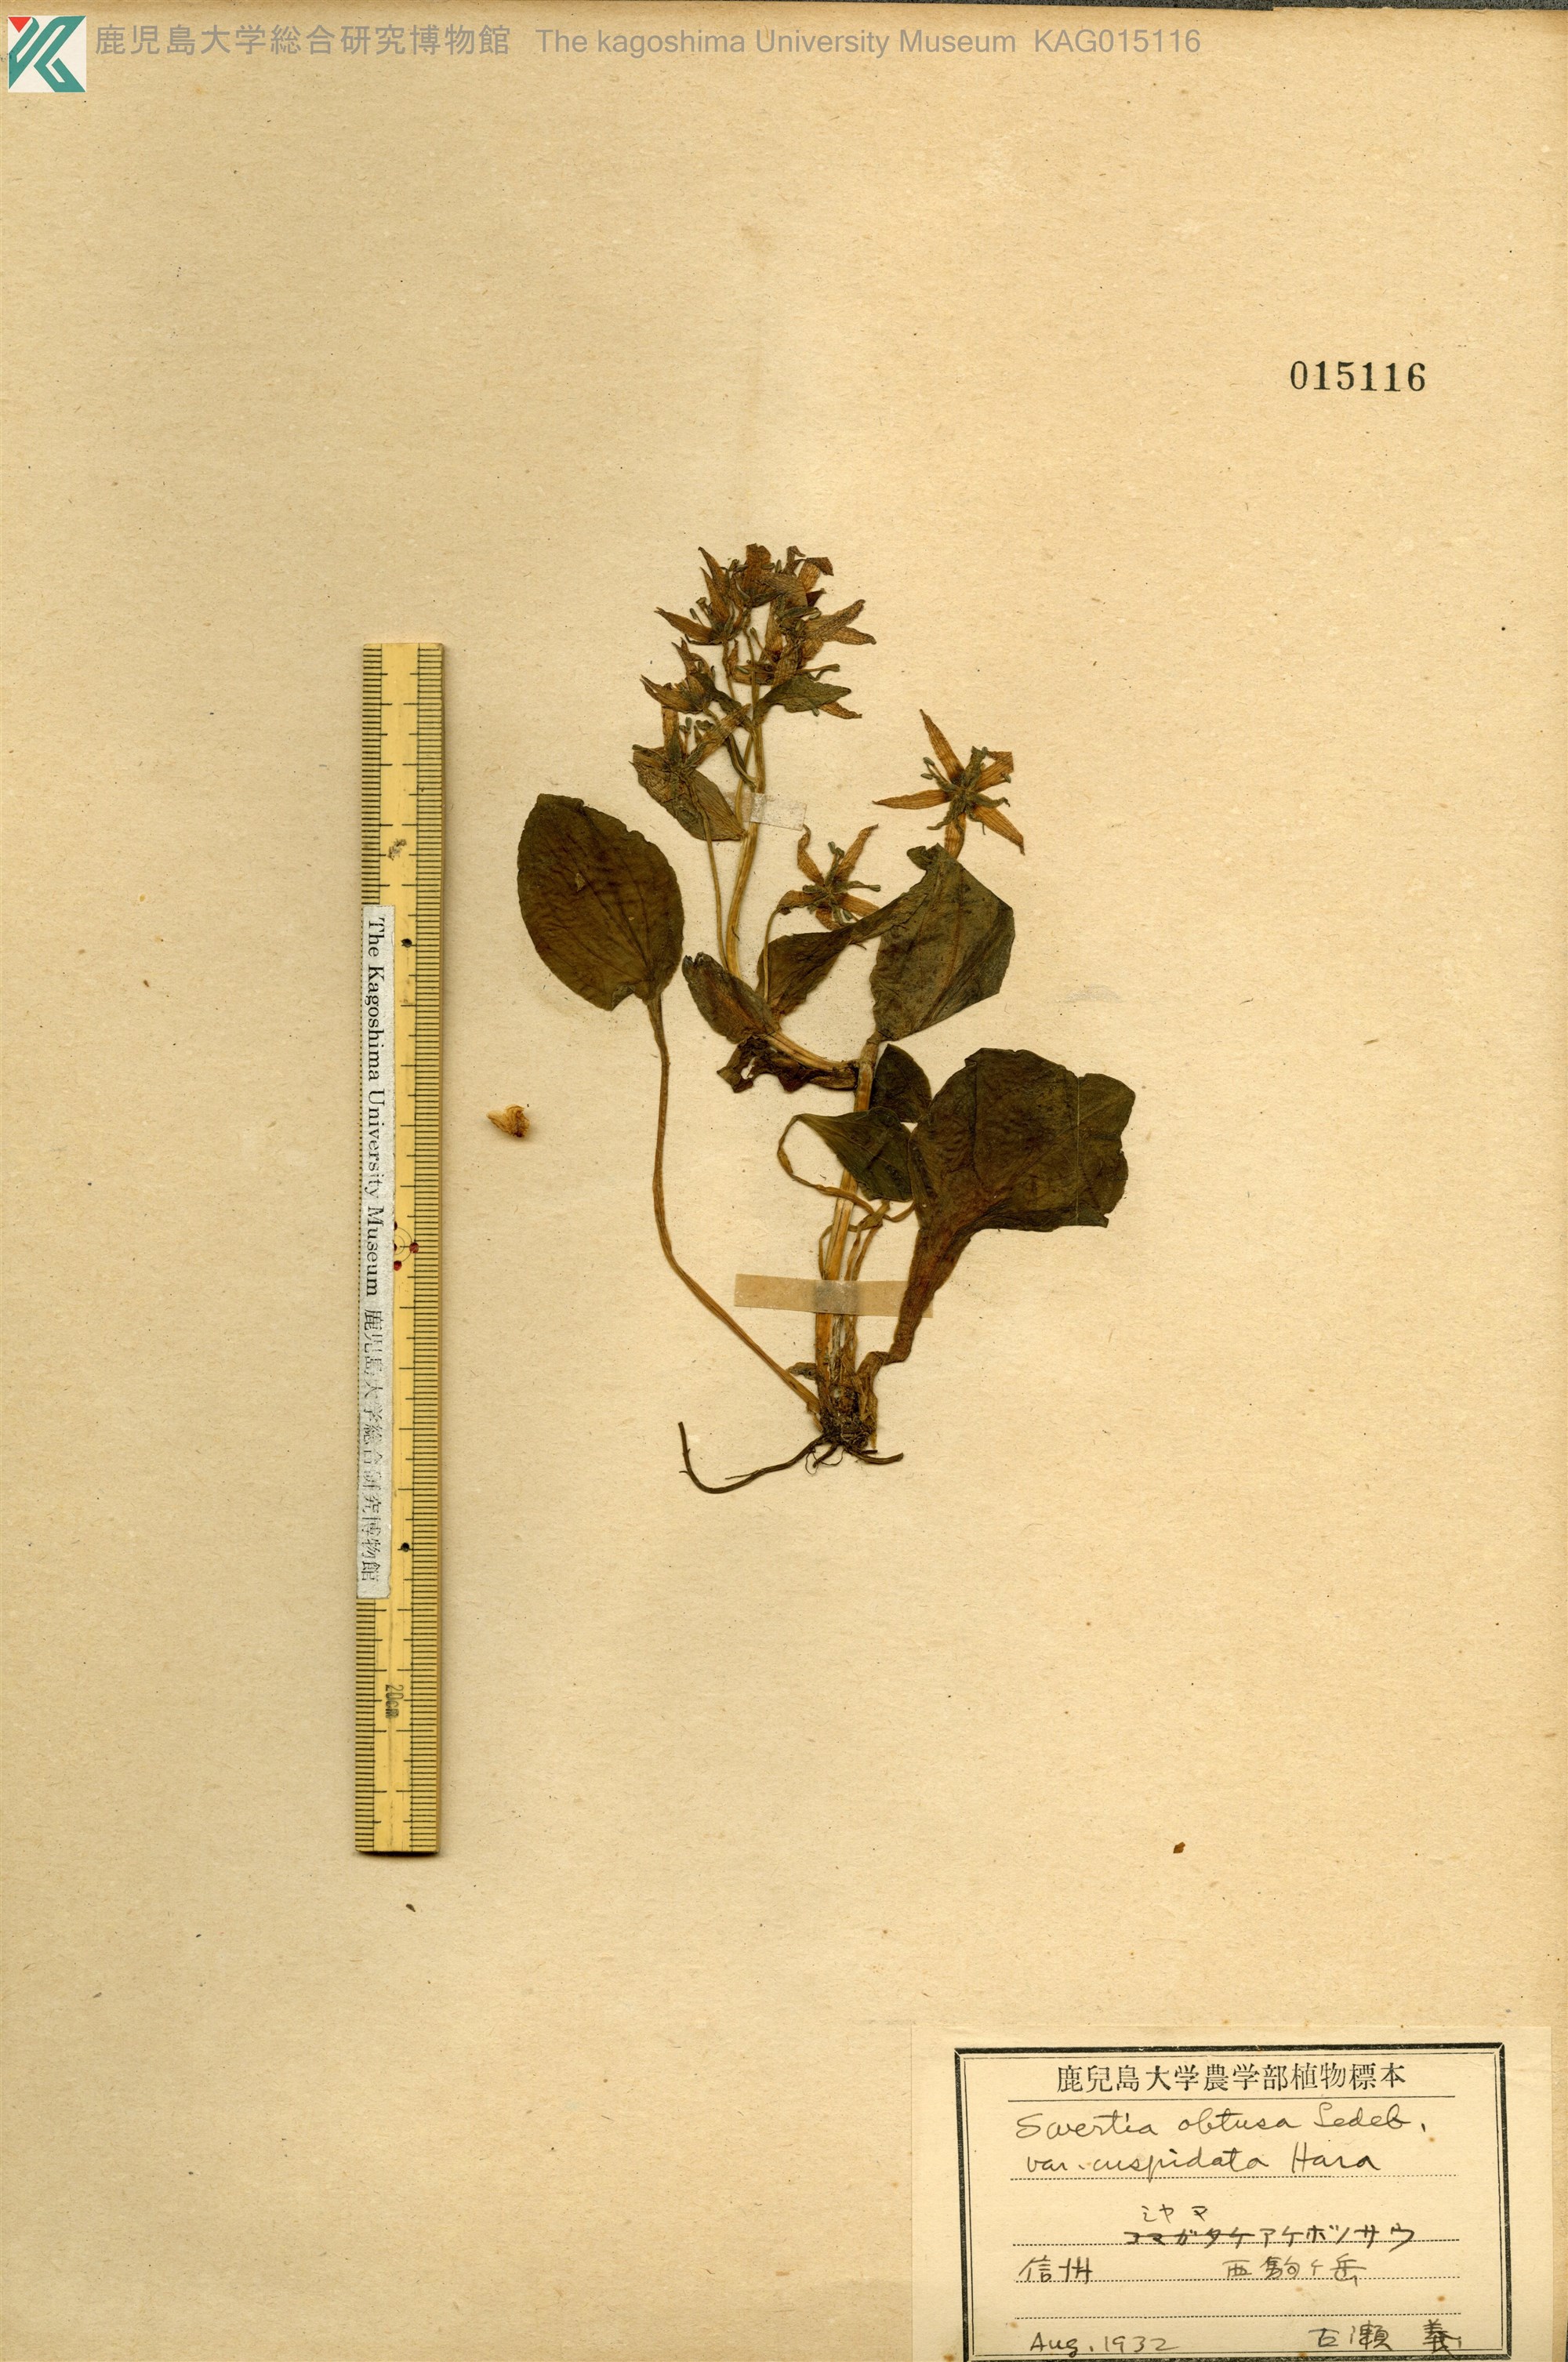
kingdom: Plantae
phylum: Tracheophyta
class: Magnoliopsida
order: Gentianales
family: Gentianaceae
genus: Swertia
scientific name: Swertia perennis
